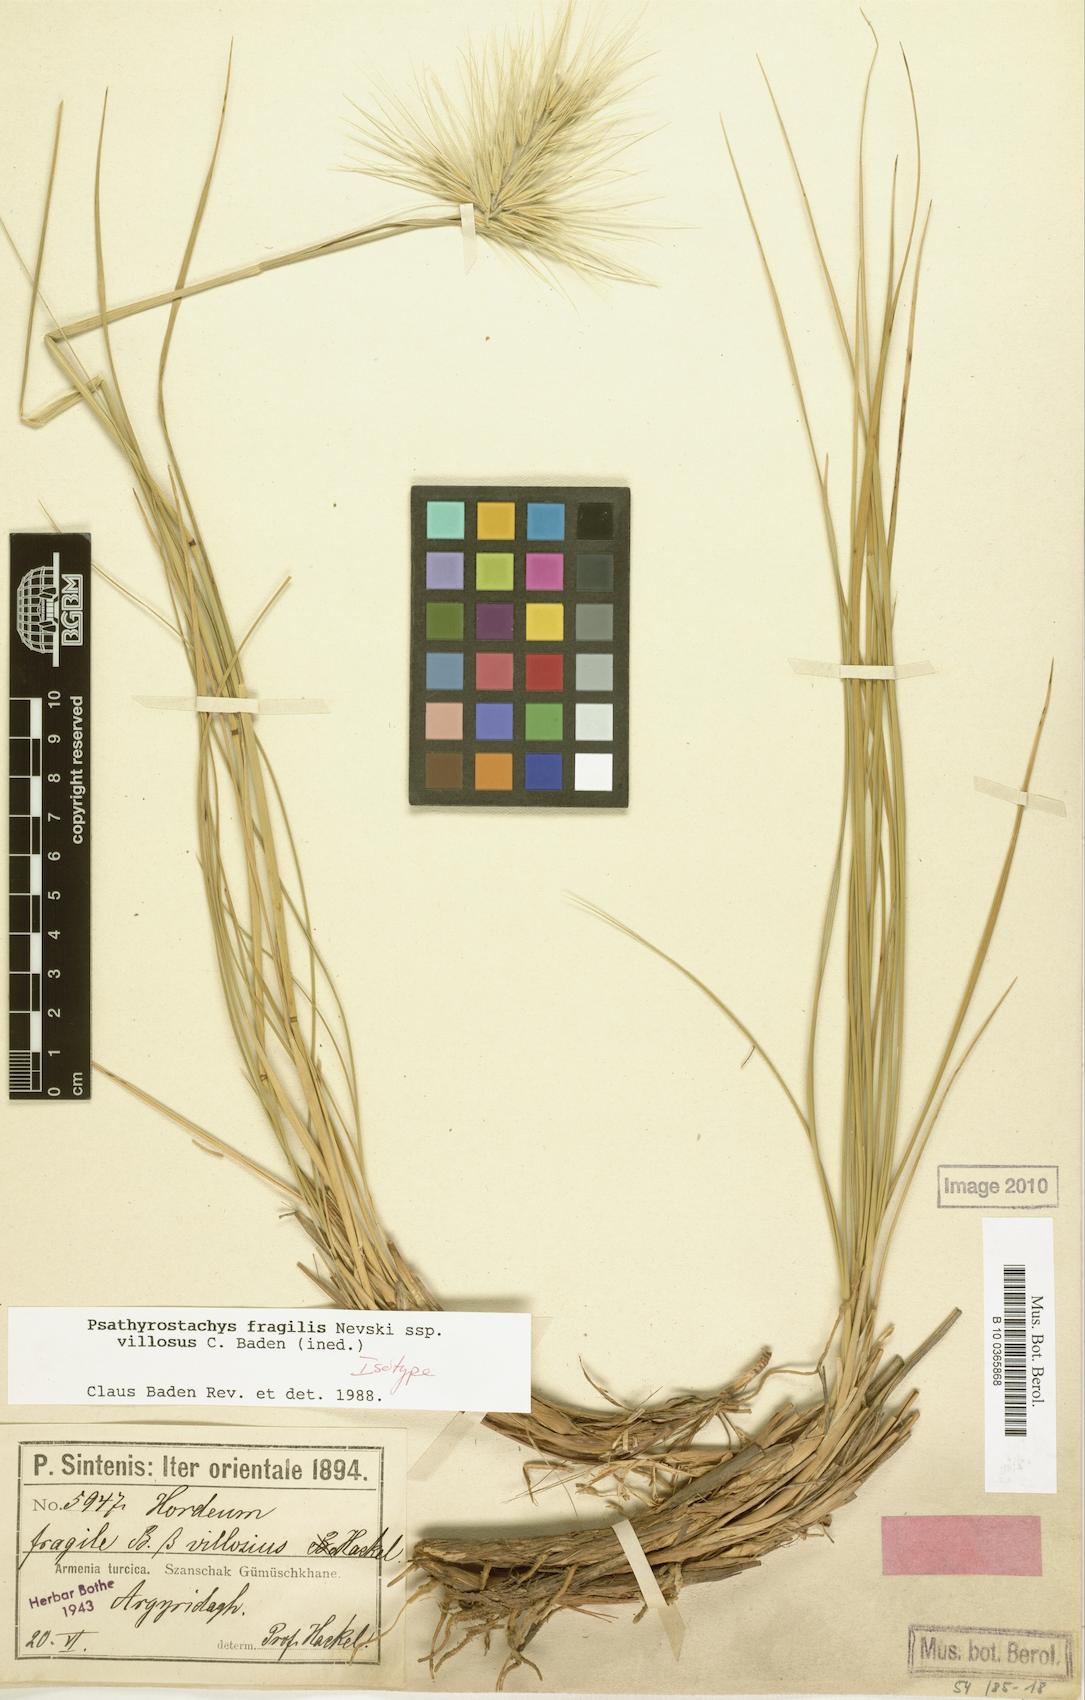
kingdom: Plantae
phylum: Tracheophyta
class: Liliopsida
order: Poales
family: Poaceae
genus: Psathyrostachys
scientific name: Psathyrostachys fragilis
